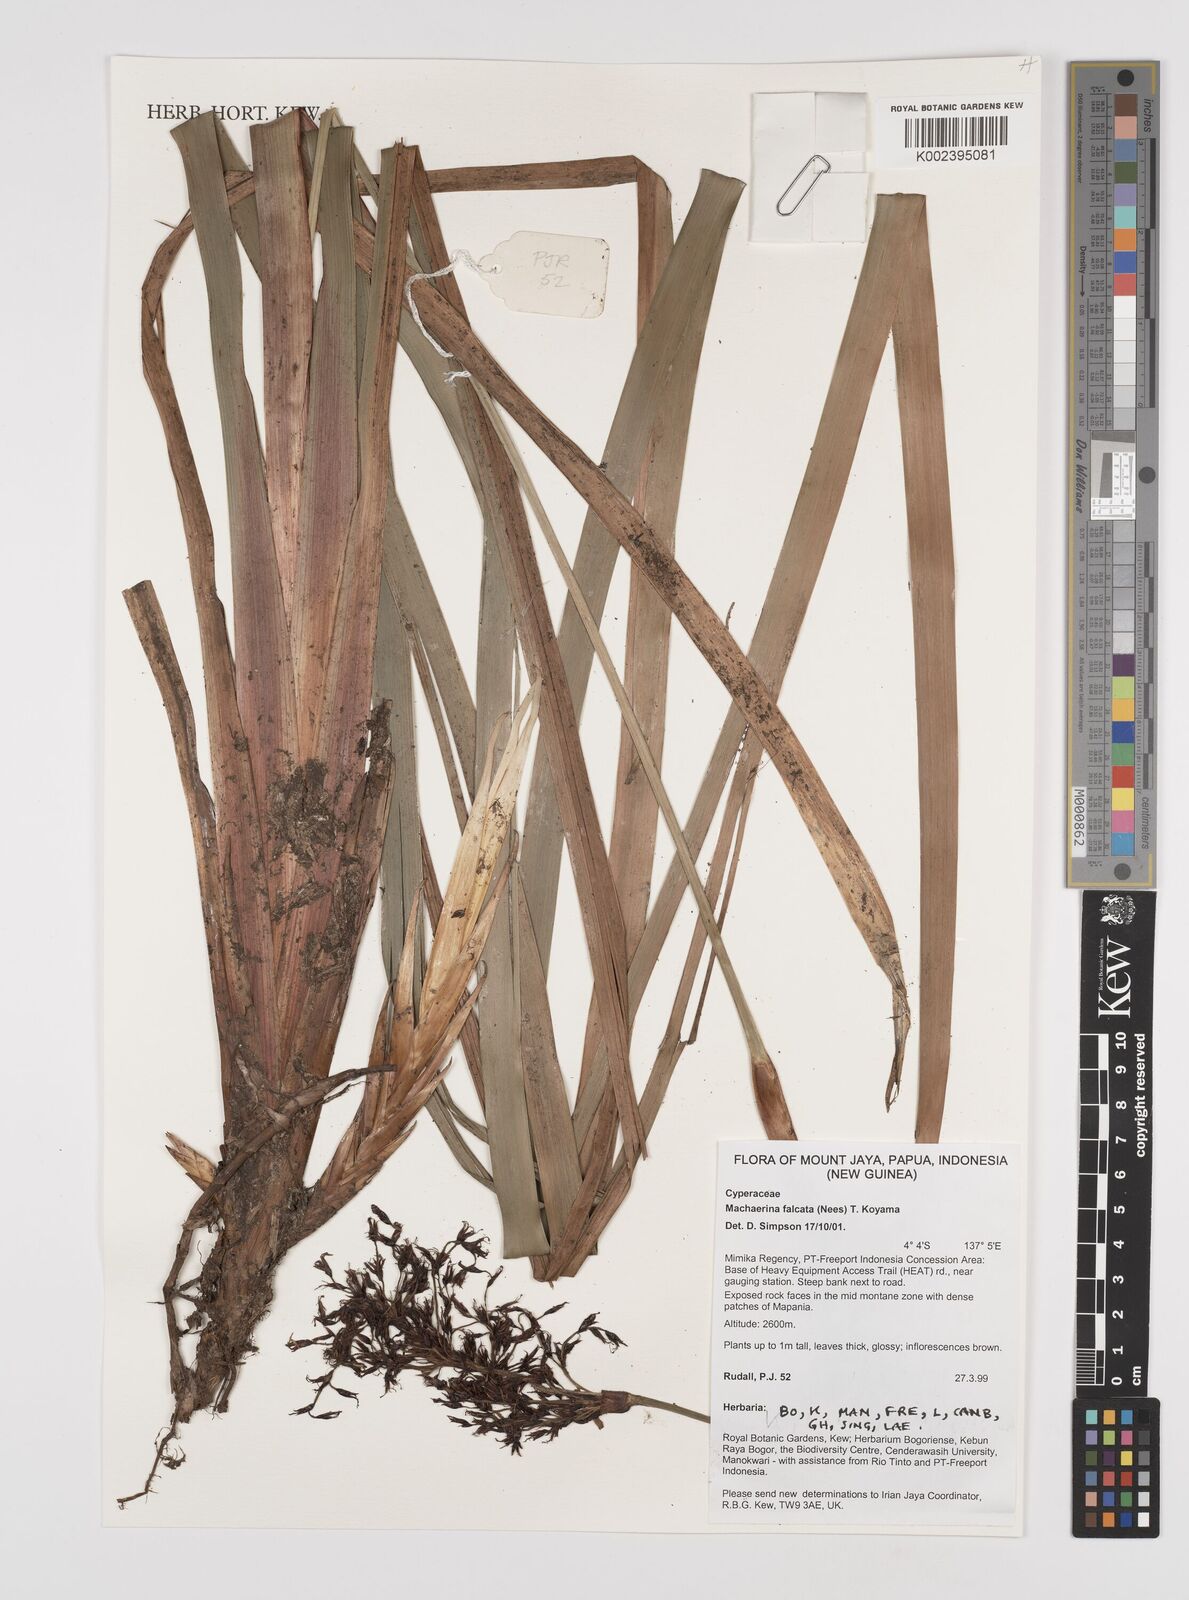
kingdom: Plantae
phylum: Tracheophyta
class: Liliopsida
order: Poales
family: Cyperaceae
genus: Machaerina
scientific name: Machaerina falcata
